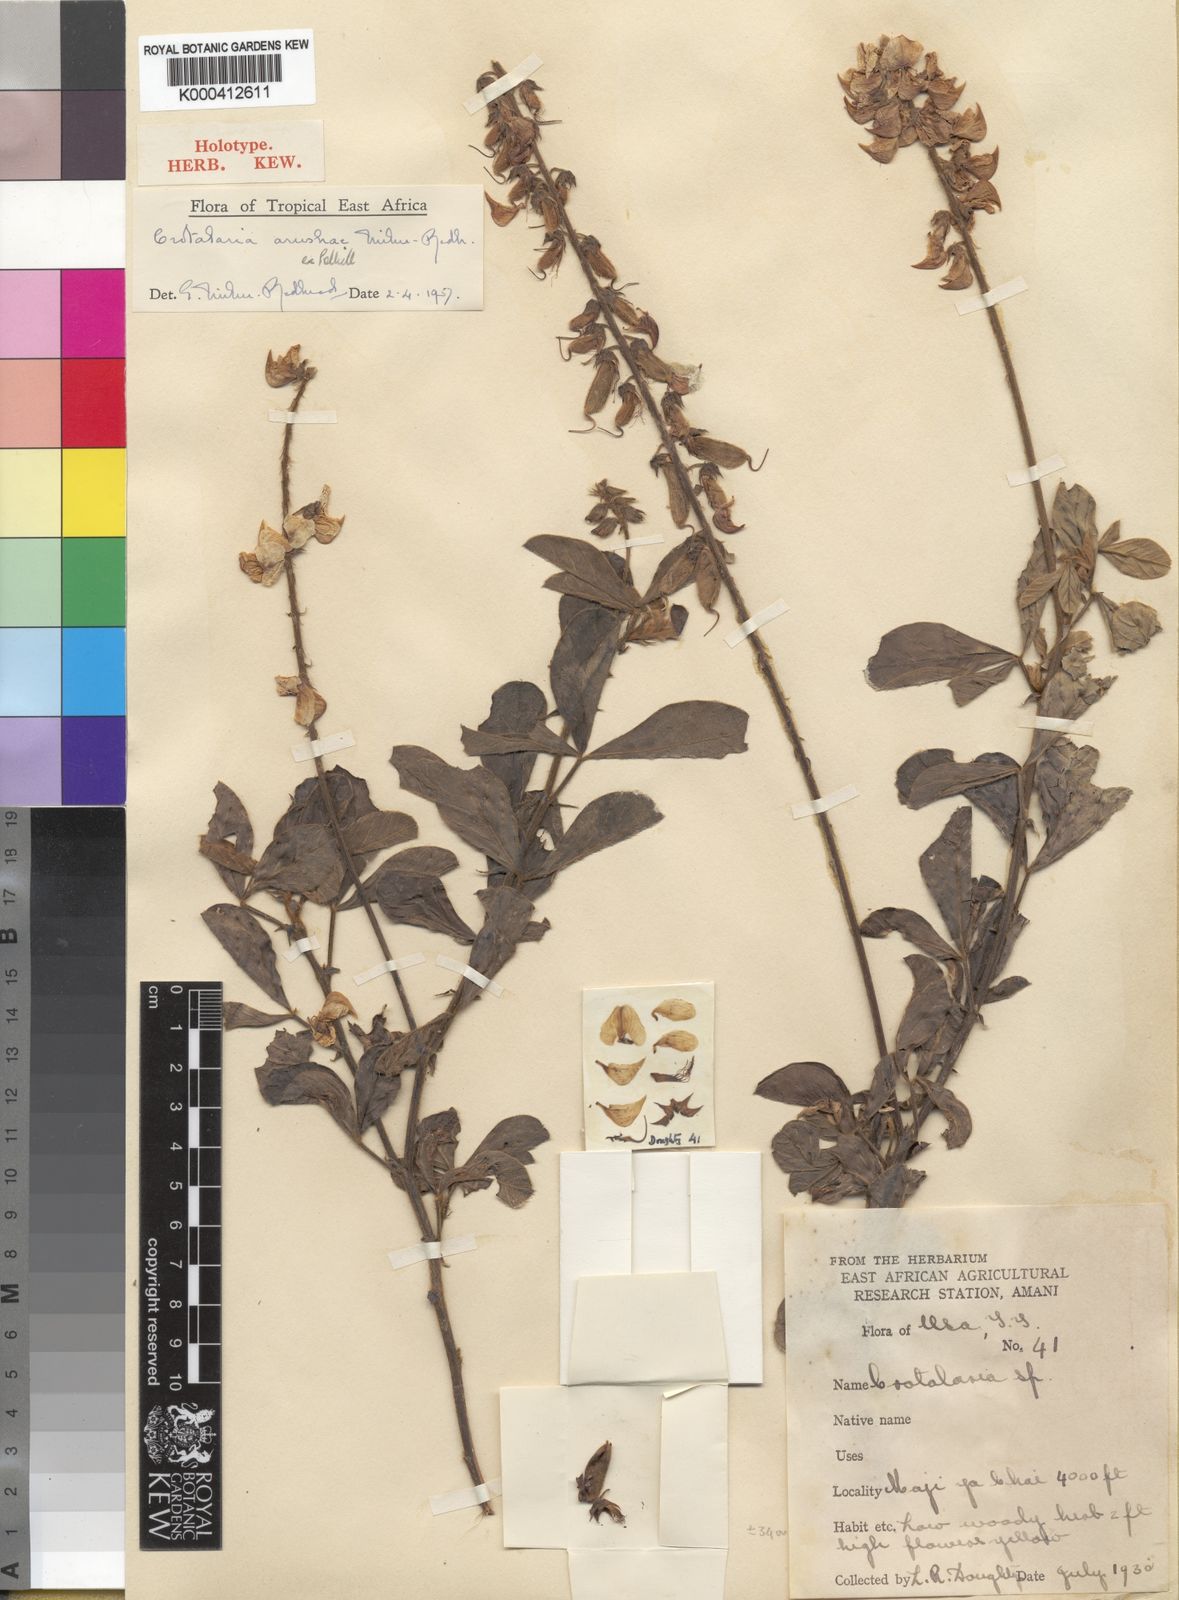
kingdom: Plantae
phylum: Tracheophyta
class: Magnoliopsida
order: Fabales
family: Fabaceae
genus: Crotalaria
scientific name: Crotalaria arushae
